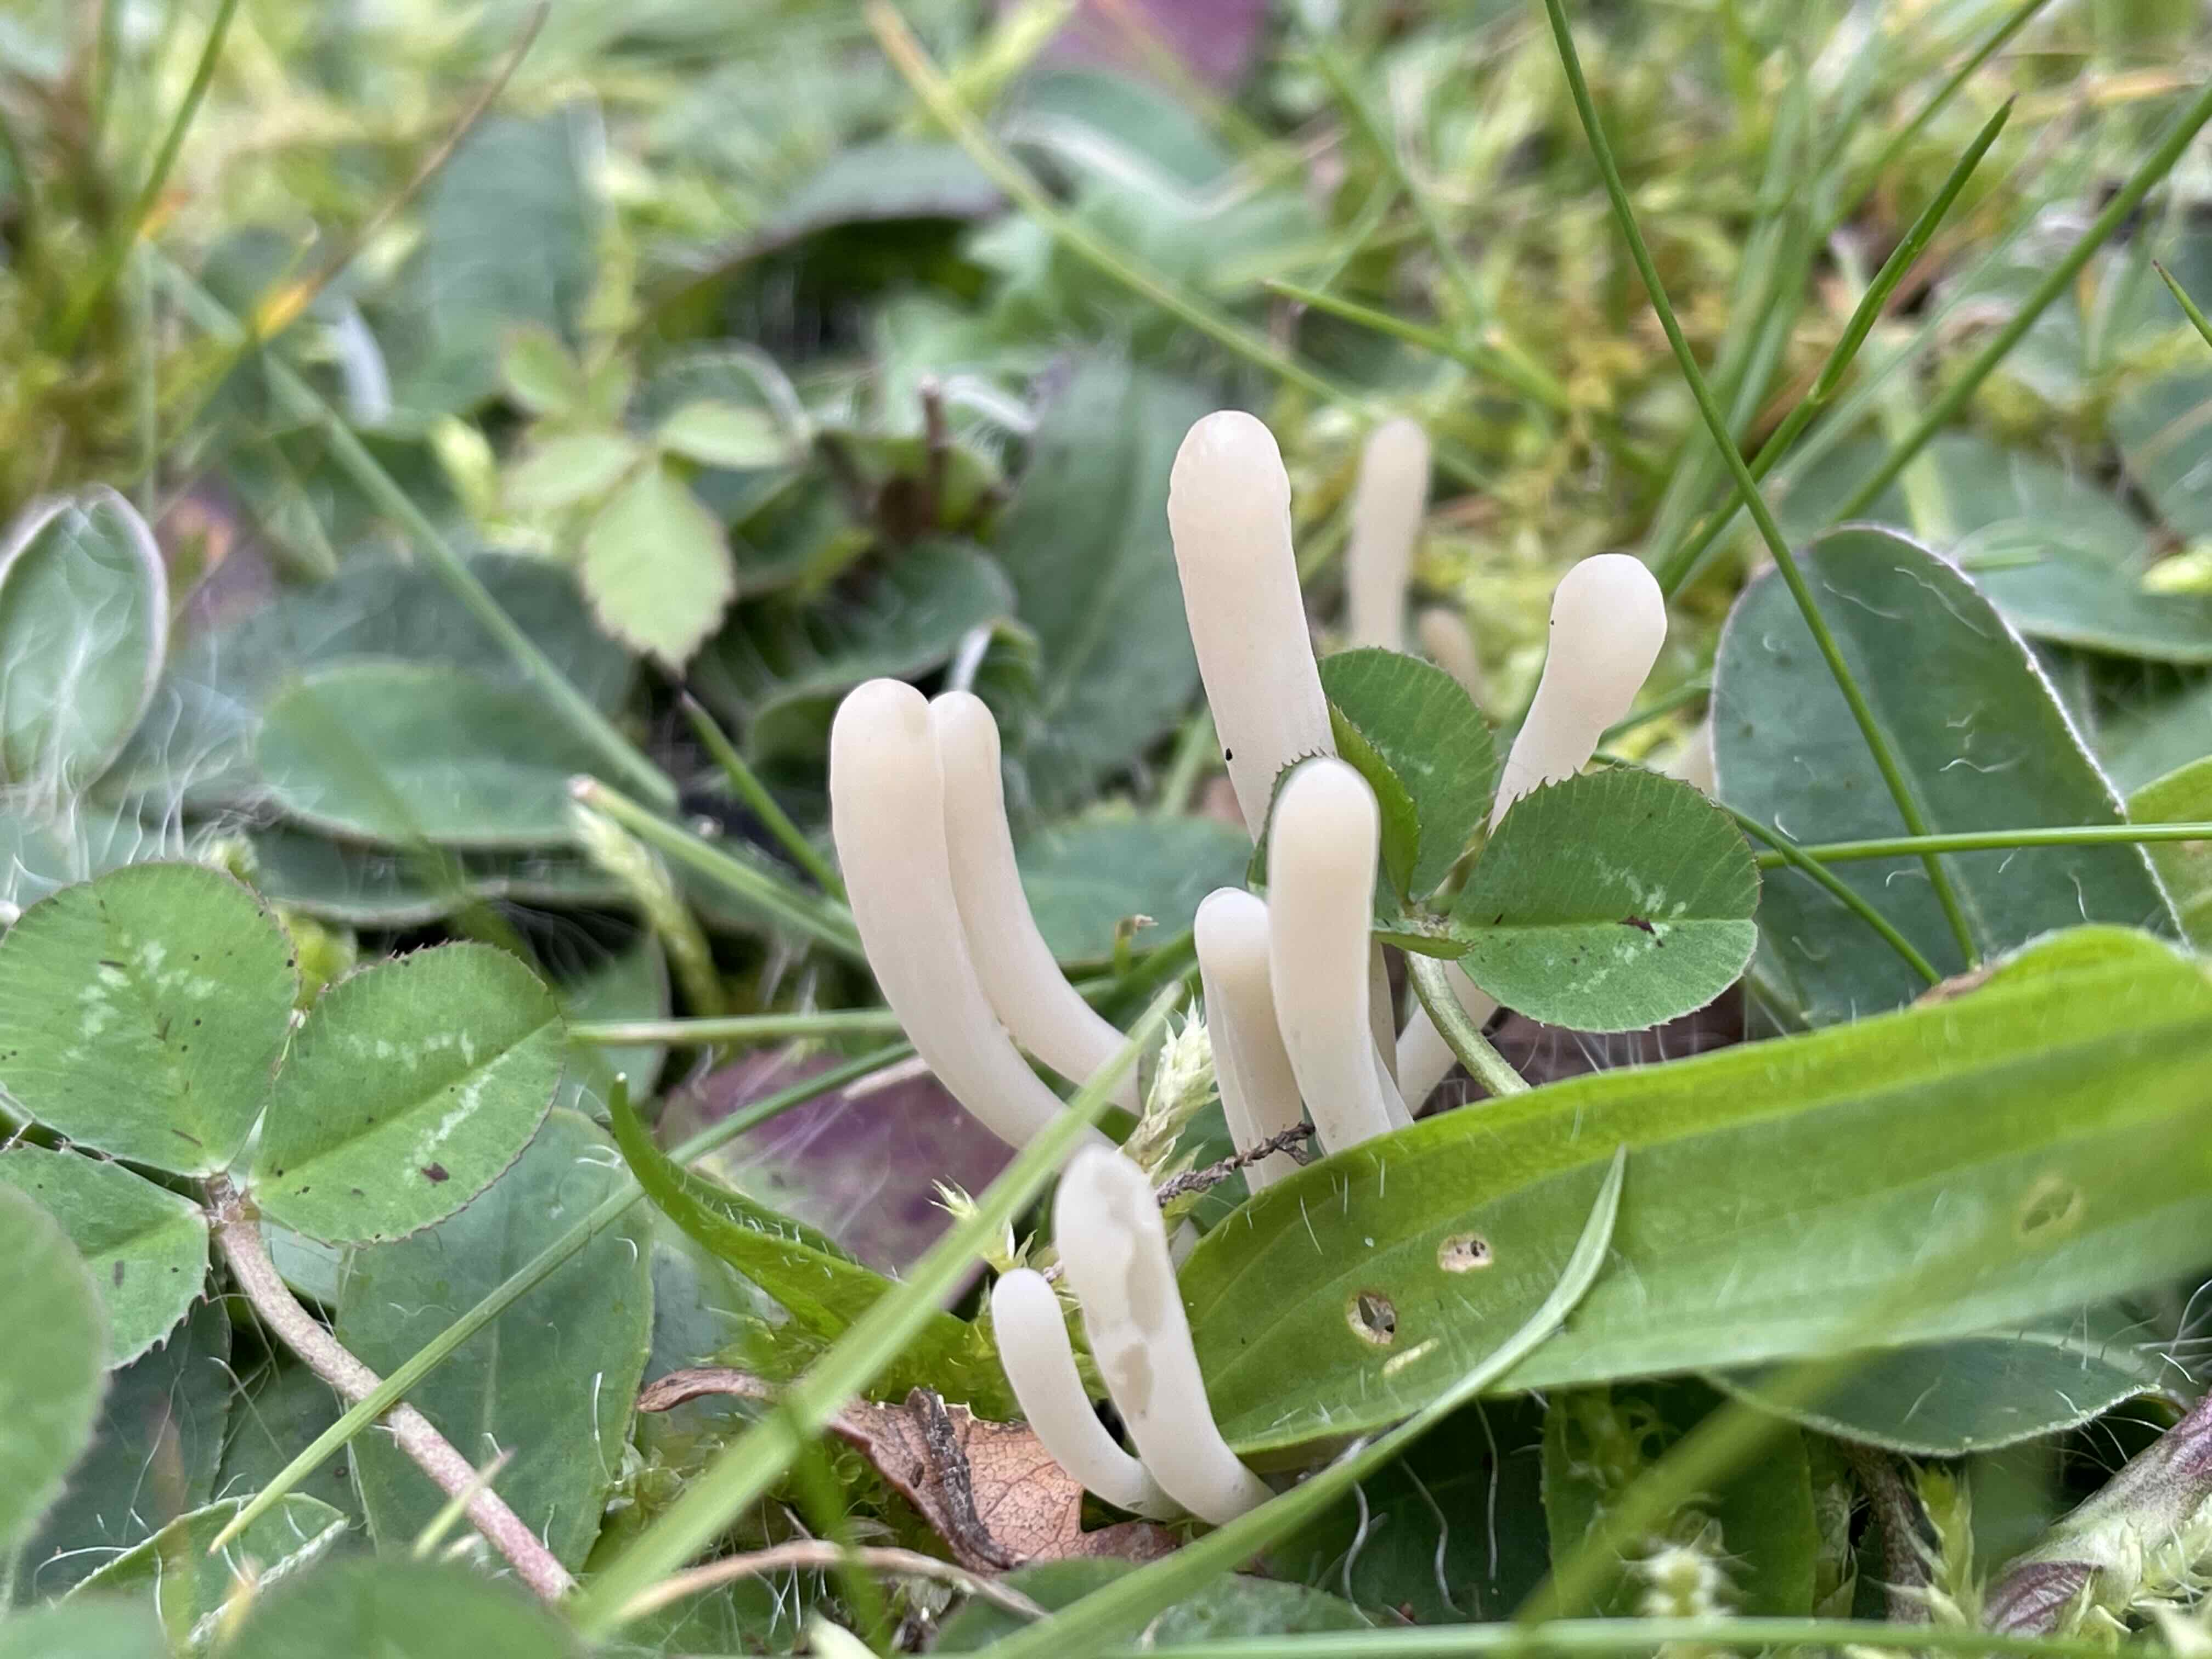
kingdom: Fungi
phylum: Basidiomycota
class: Agaricomycetes
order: Agaricales
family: Clavariaceae
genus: Clavaria
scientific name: Clavaria tenuipes
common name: isabellafarvet køllesvamp
